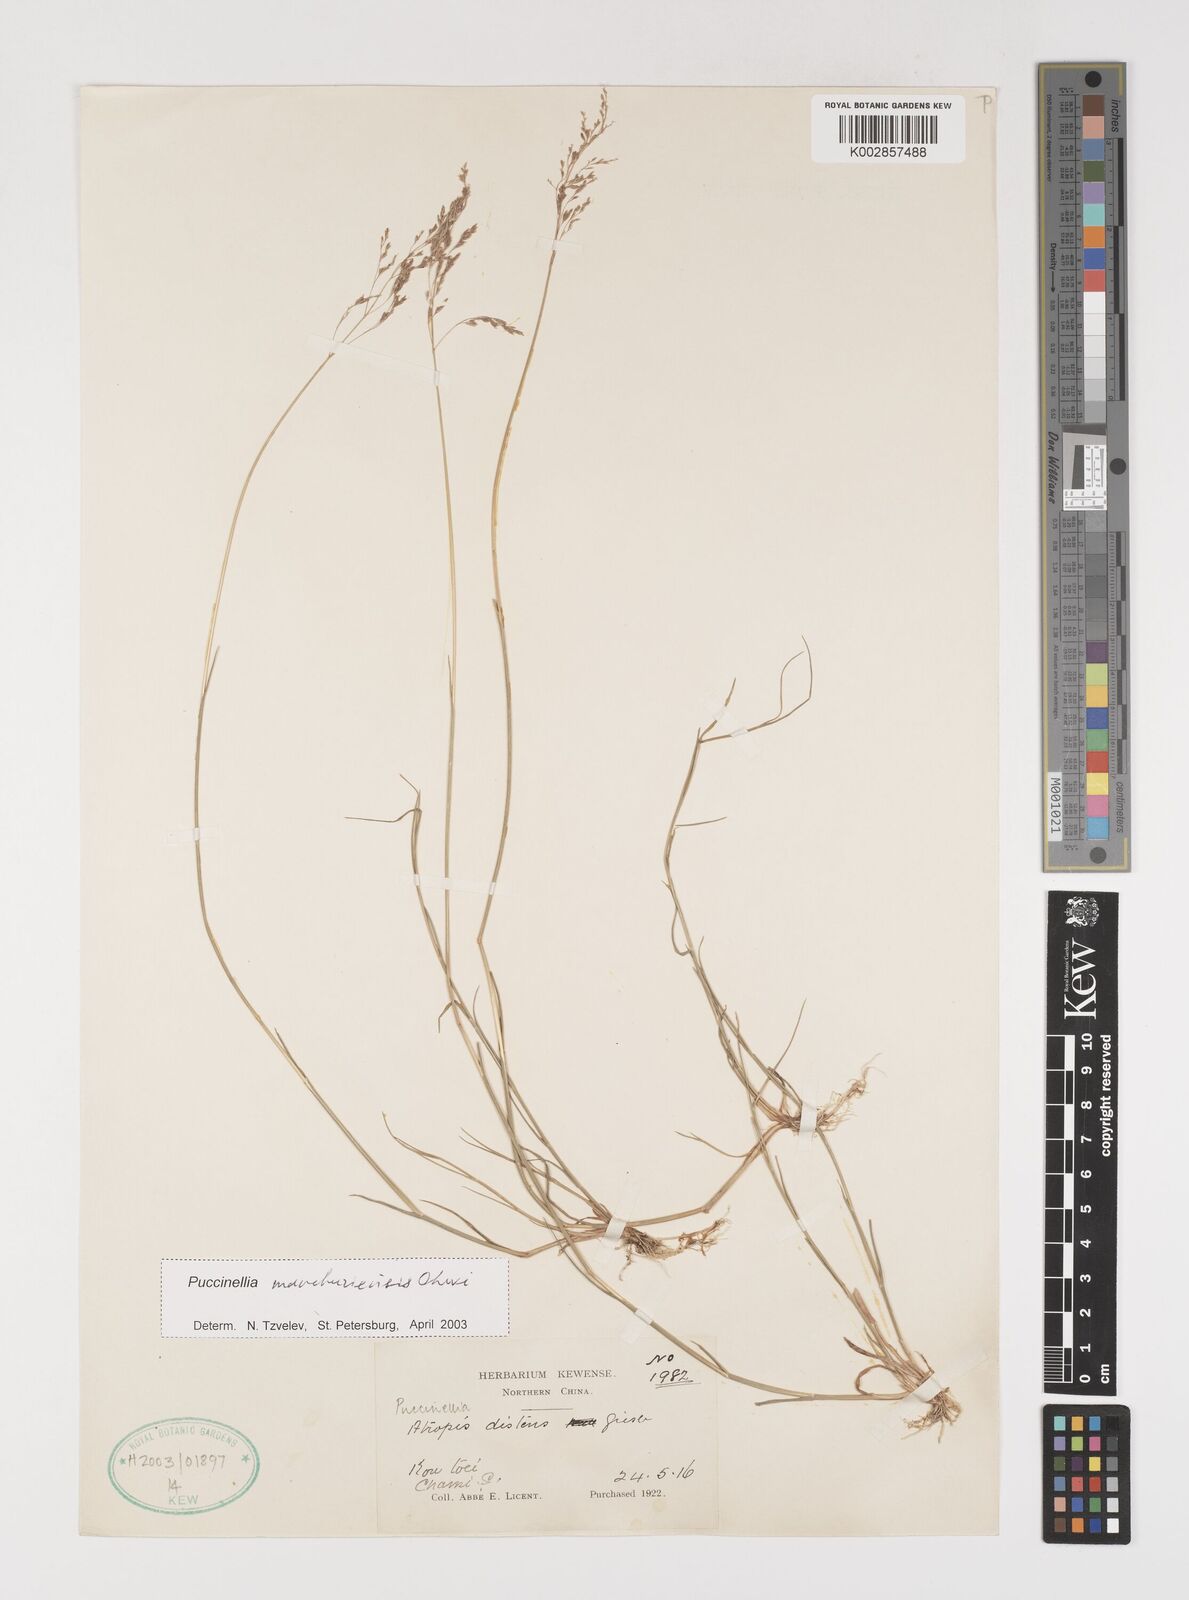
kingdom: Plantae
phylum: Tracheophyta
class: Liliopsida
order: Poales
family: Poaceae
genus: Puccinellia
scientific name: Puccinellia manchuriensis
